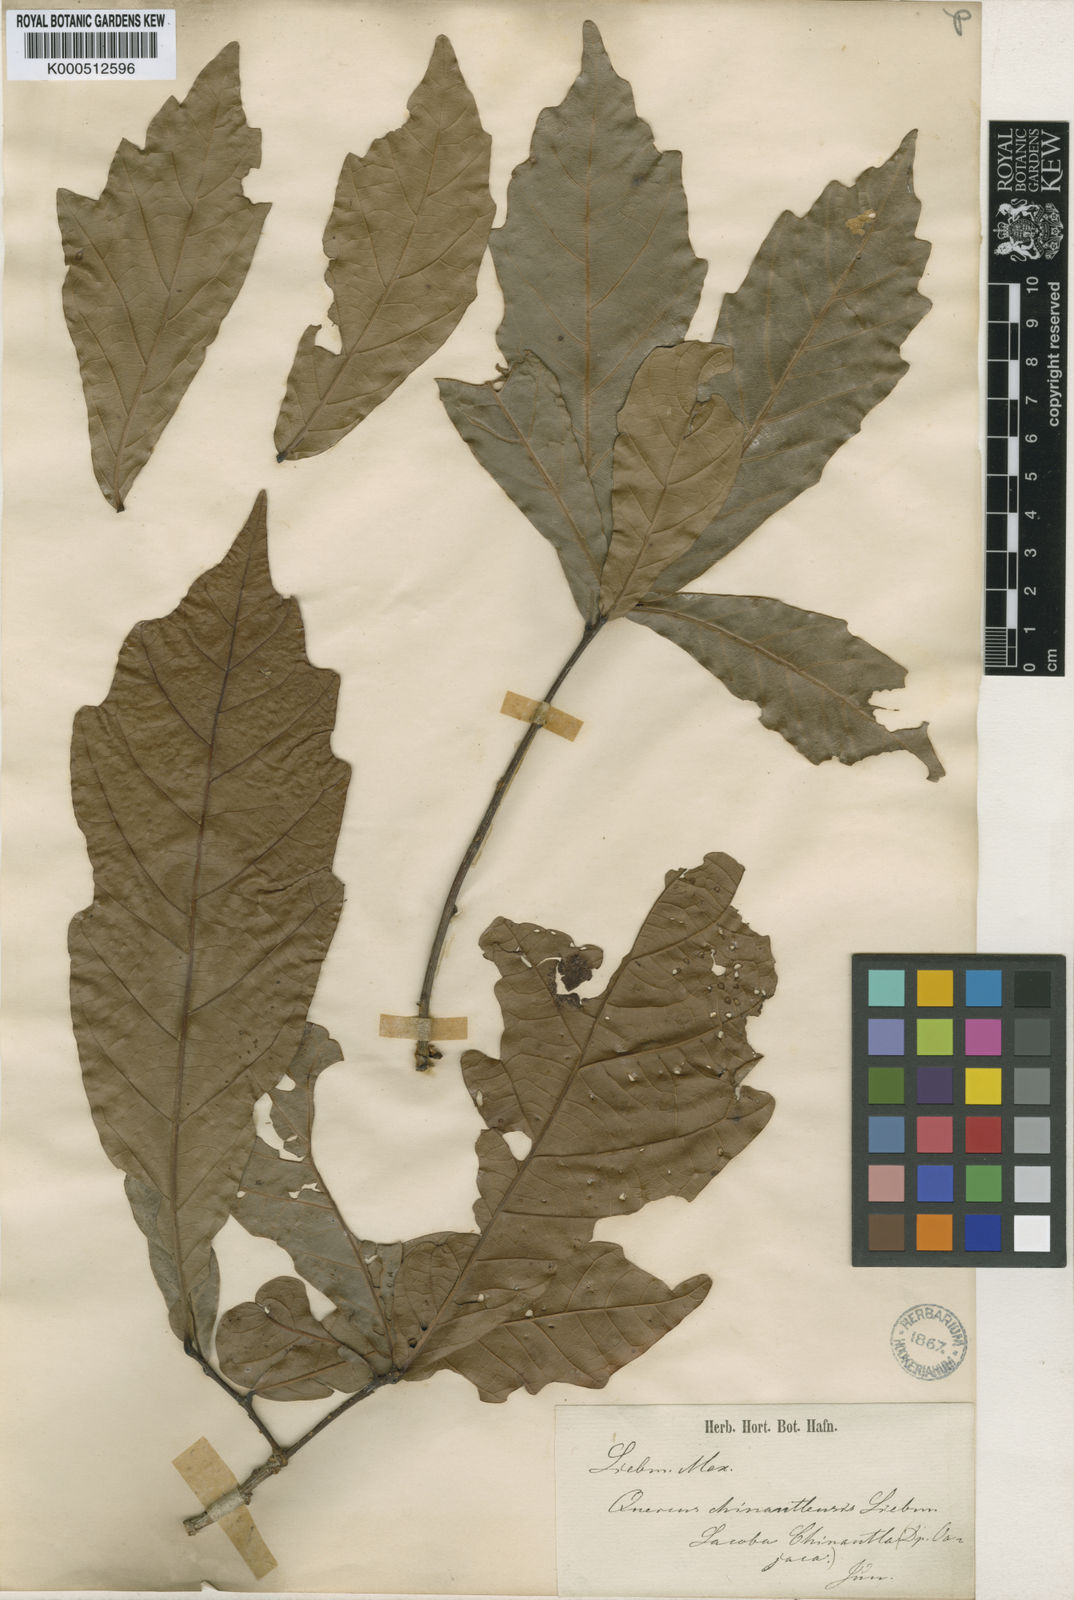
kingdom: Plantae
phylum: Tracheophyta
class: Magnoliopsida
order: Fagales
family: Fagaceae
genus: Quercus
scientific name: Quercus glaucescens
